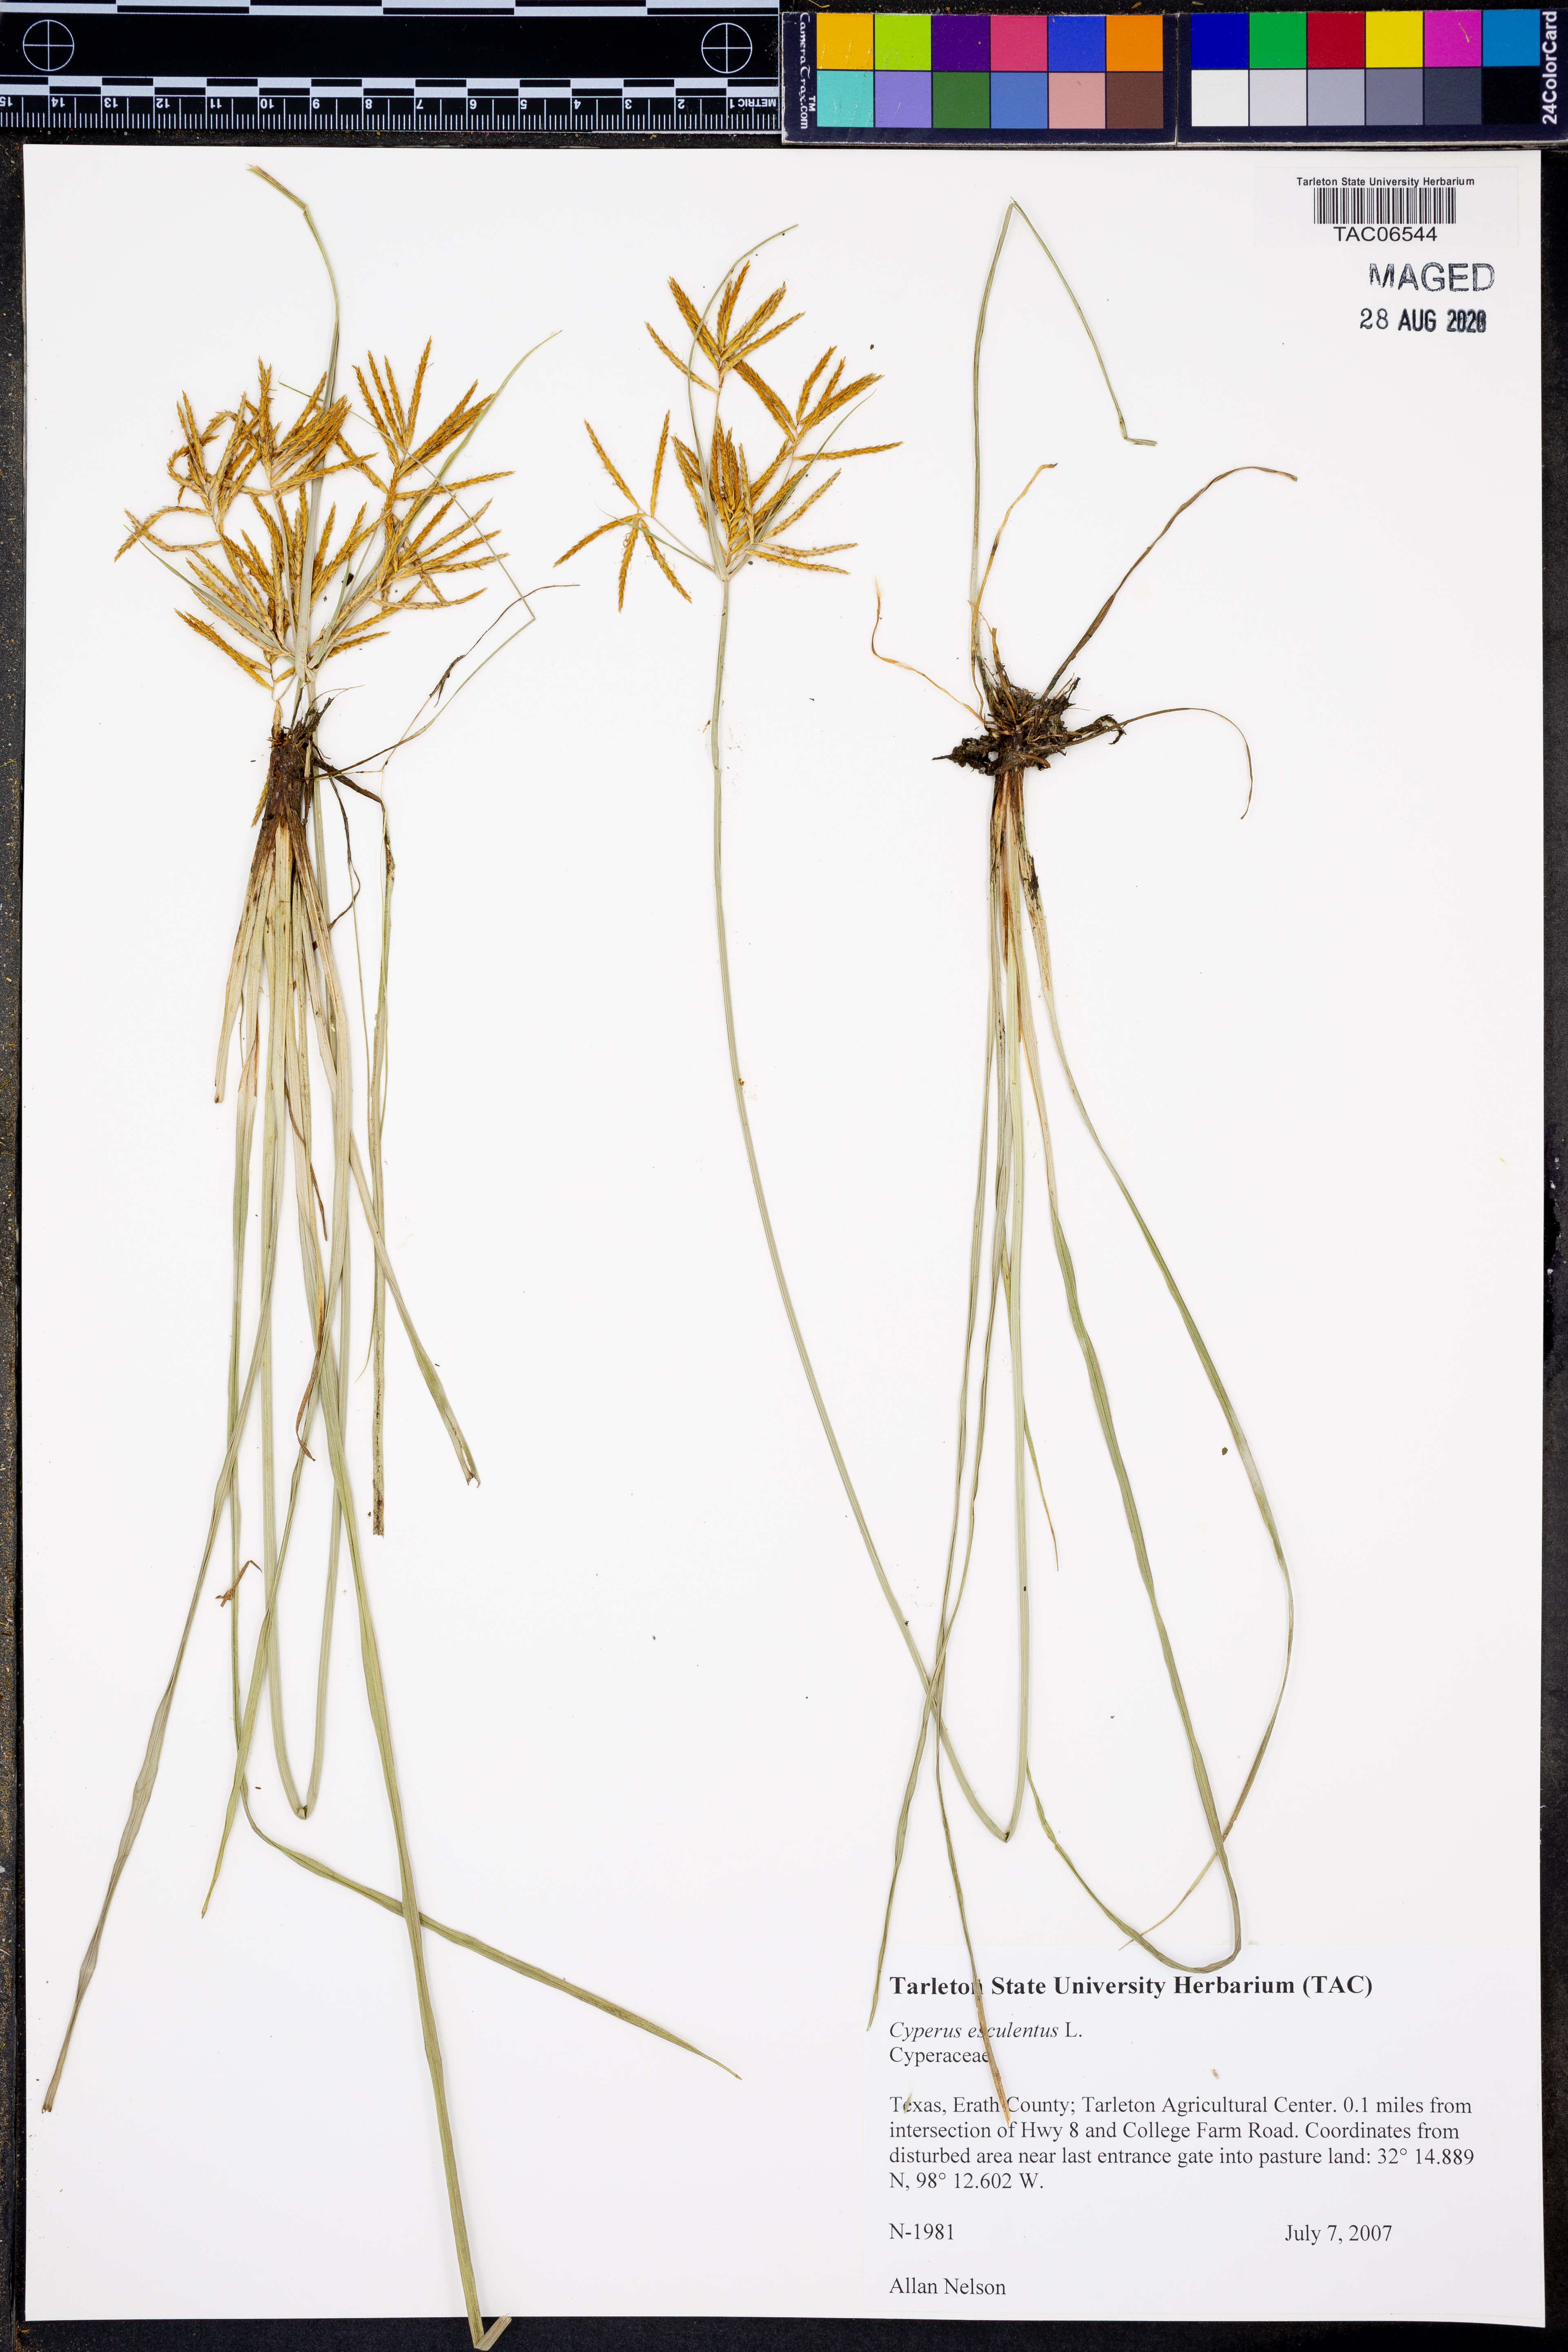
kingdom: Plantae
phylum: Tracheophyta
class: Liliopsida
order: Poales
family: Cyperaceae
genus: Cyperus
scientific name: Cyperus esculentus
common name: Yellow nutsedge
